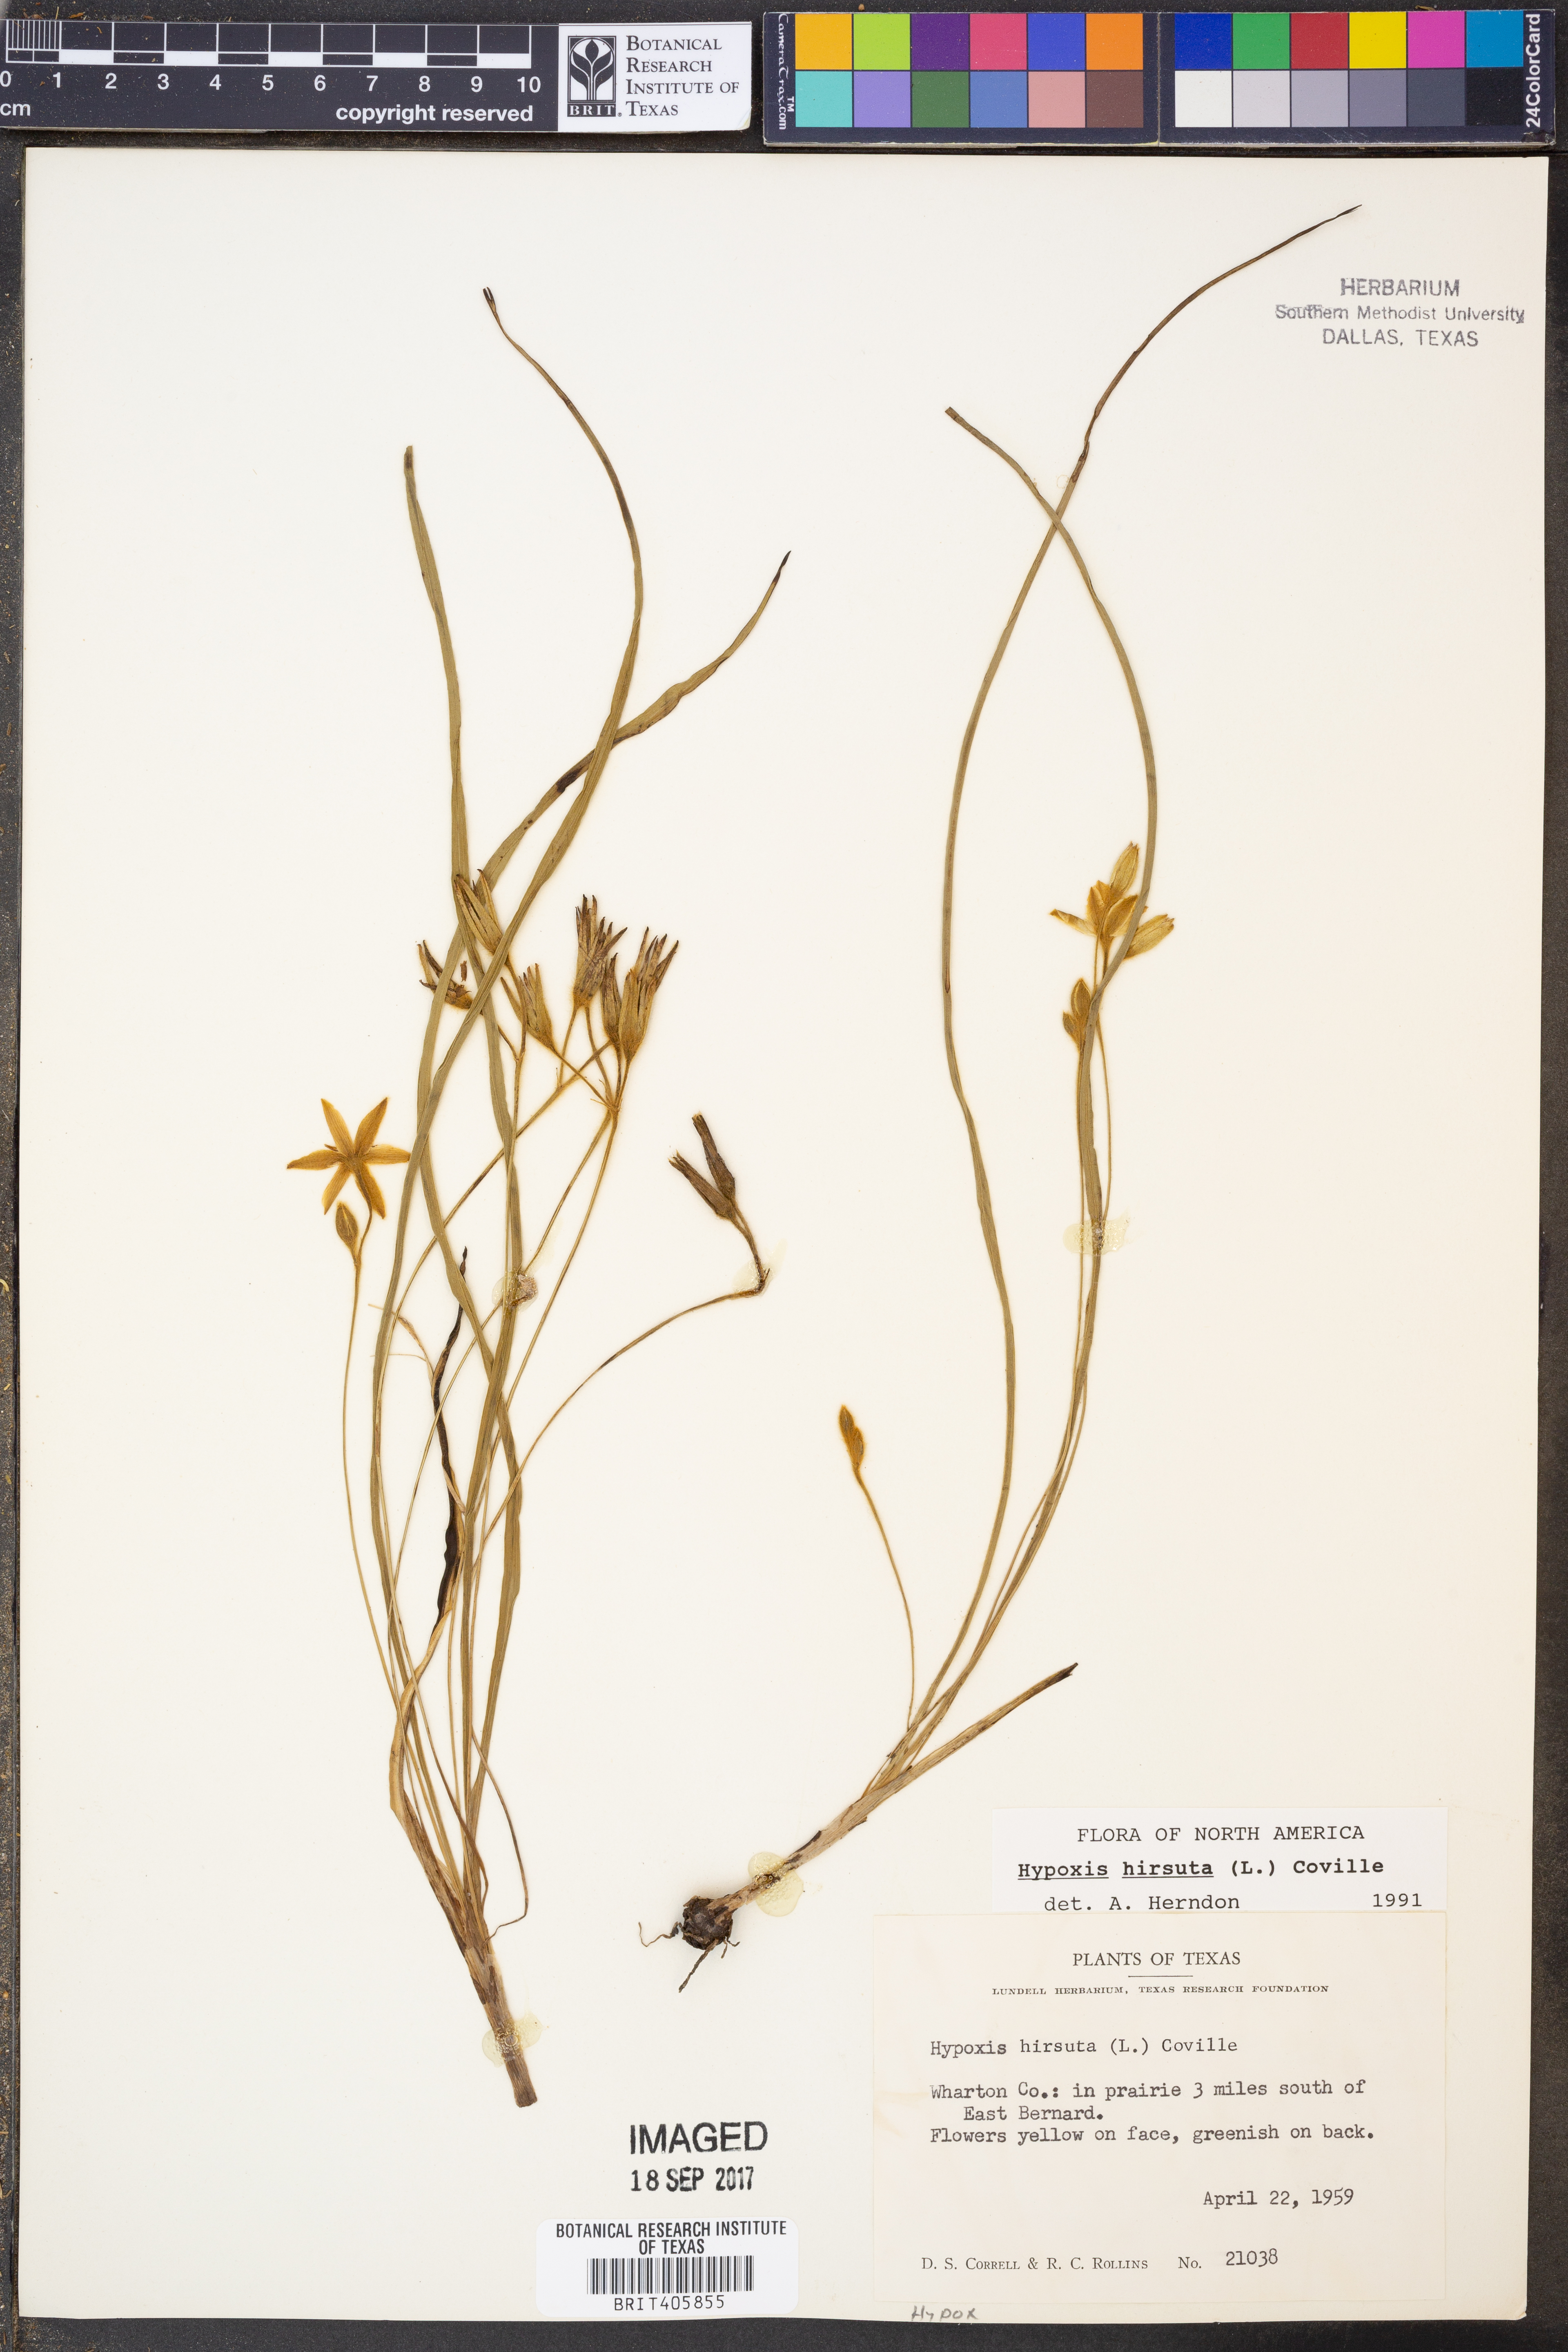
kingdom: Plantae
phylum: Tracheophyta
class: Liliopsida
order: Asparagales
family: Hypoxidaceae
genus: Hypoxis
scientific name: Hypoxis hirsuta
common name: Common goldstar
